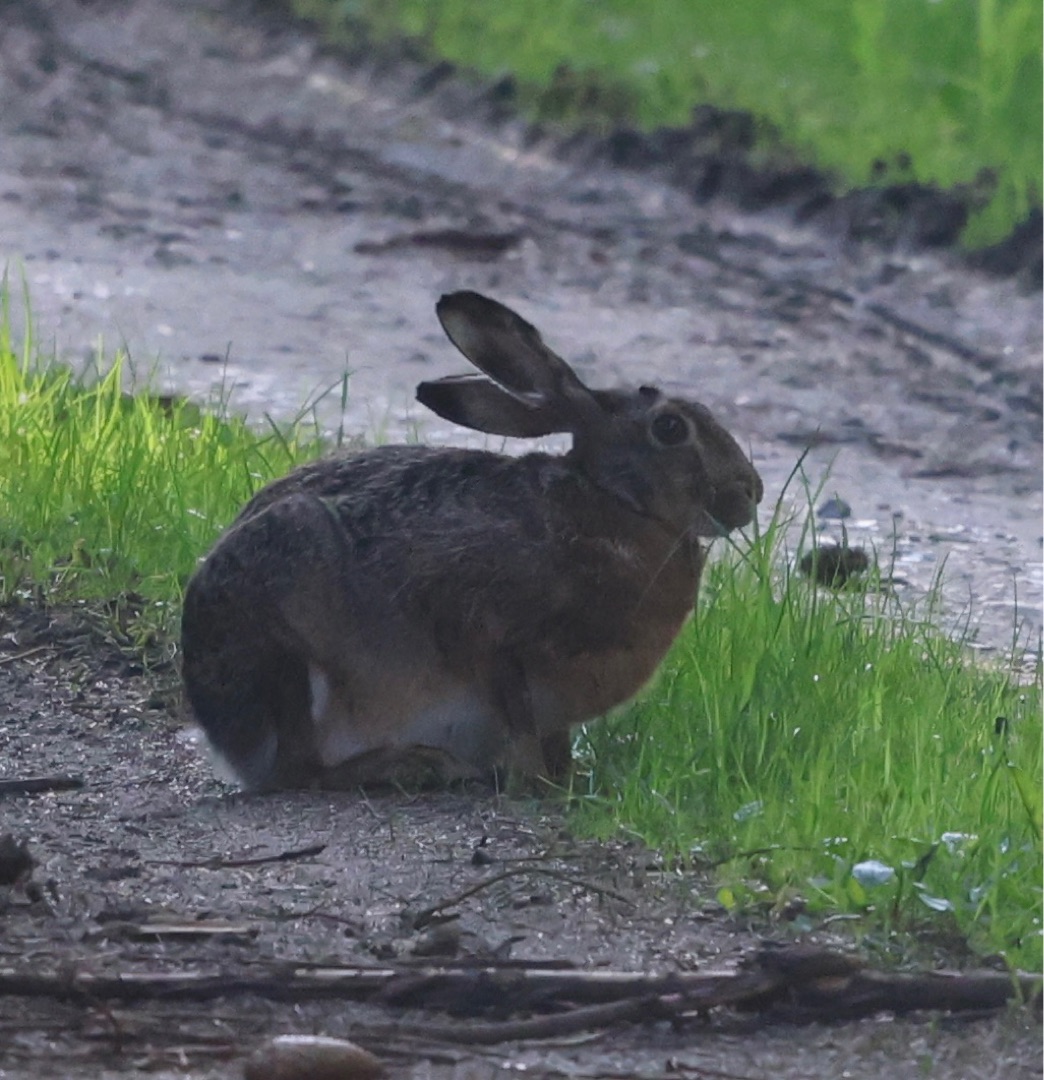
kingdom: Animalia
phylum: Chordata
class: Mammalia
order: Lagomorpha
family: Leporidae
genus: Lepus
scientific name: Lepus europaeus
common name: Hare
